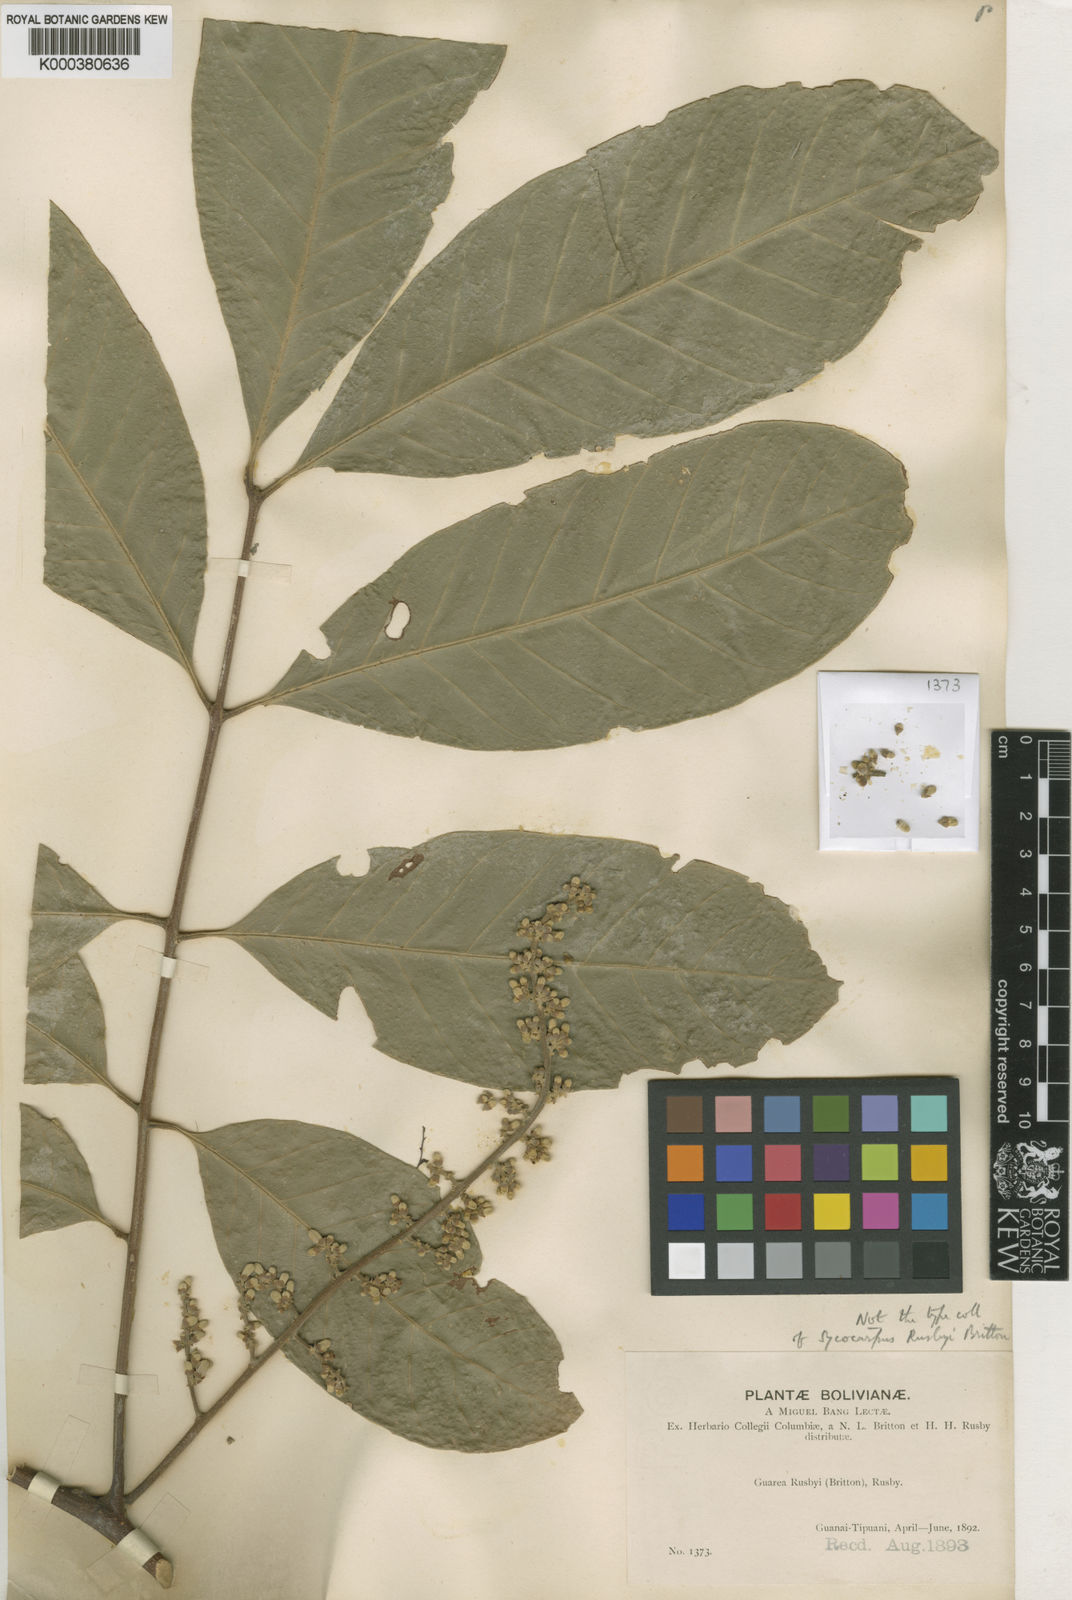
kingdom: Plantae
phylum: Tracheophyta
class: Magnoliopsida
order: Sapindales
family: Meliaceae
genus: Guarea
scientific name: Guarea guidonia
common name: American muskwood
